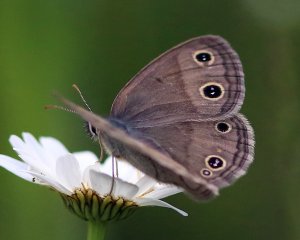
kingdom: Animalia
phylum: Arthropoda
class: Insecta
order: Lepidoptera
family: Nymphalidae
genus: Euptychia
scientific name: Euptychia cymela
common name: Little Wood Satyr
